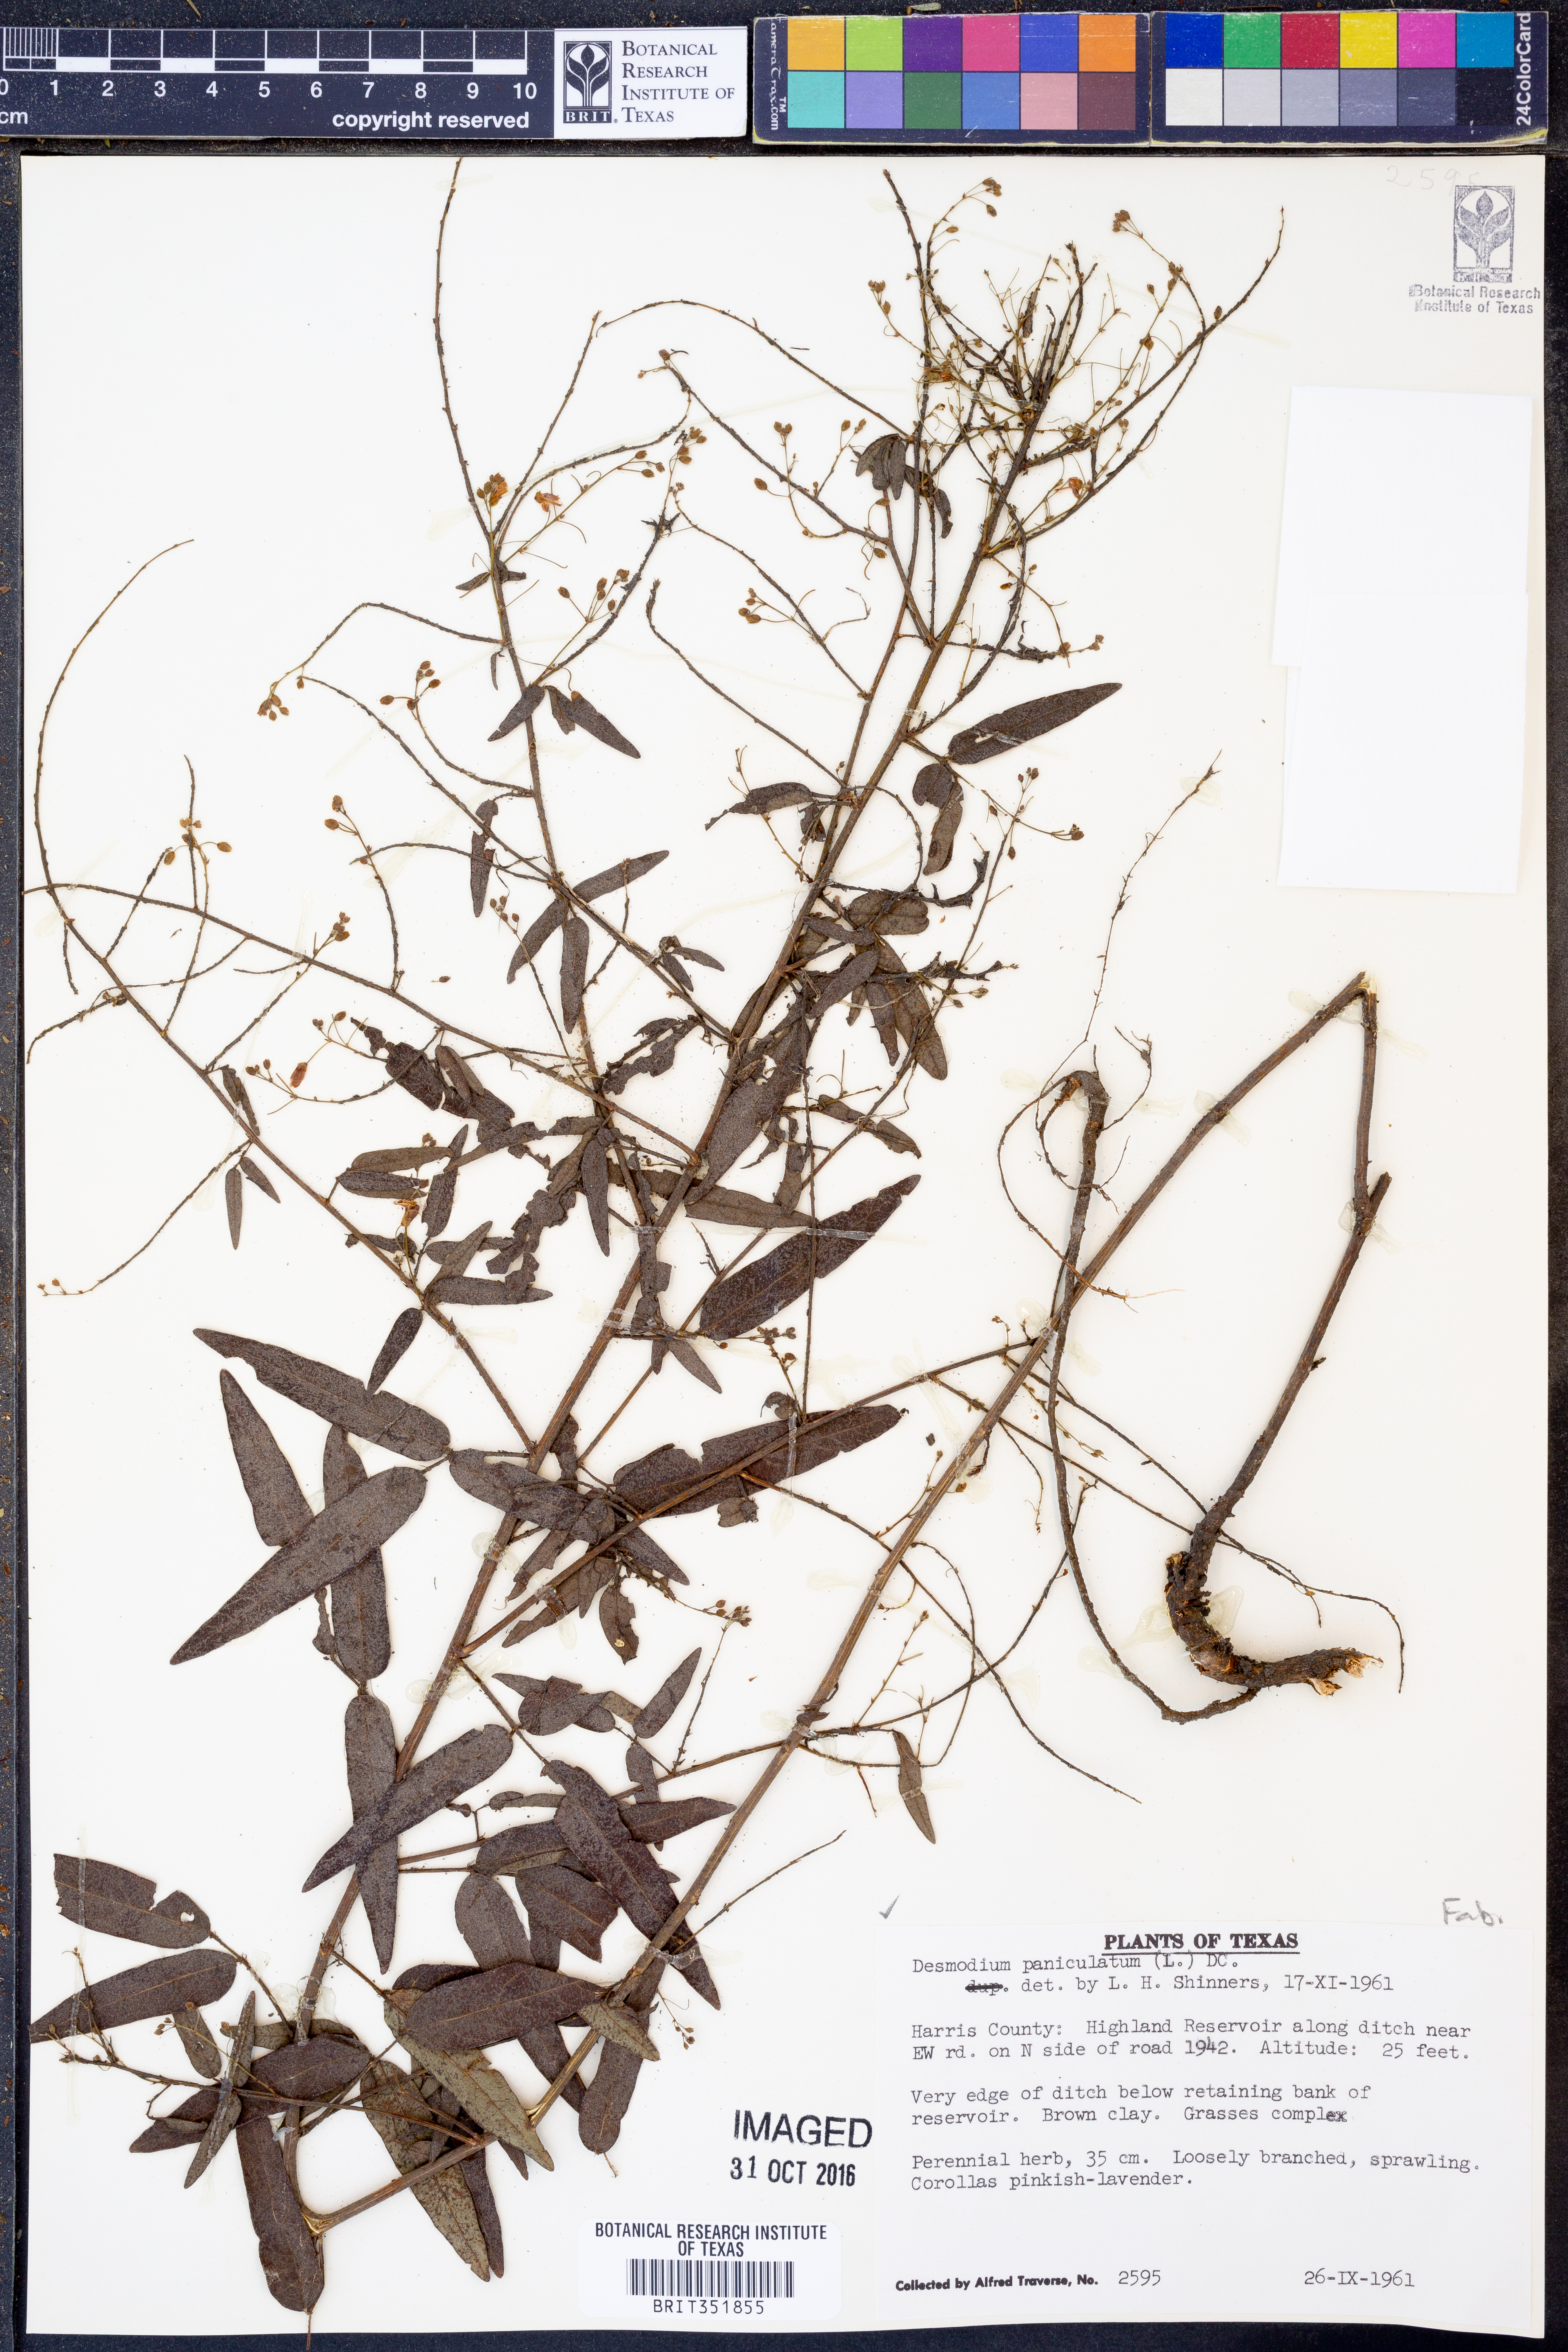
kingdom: Plantae
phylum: Tracheophyta
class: Magnoliopsida
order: Fabales
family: Fabaceae
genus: Desmodium
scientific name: Desmodium paniculatum
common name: Panicled tick-clover
